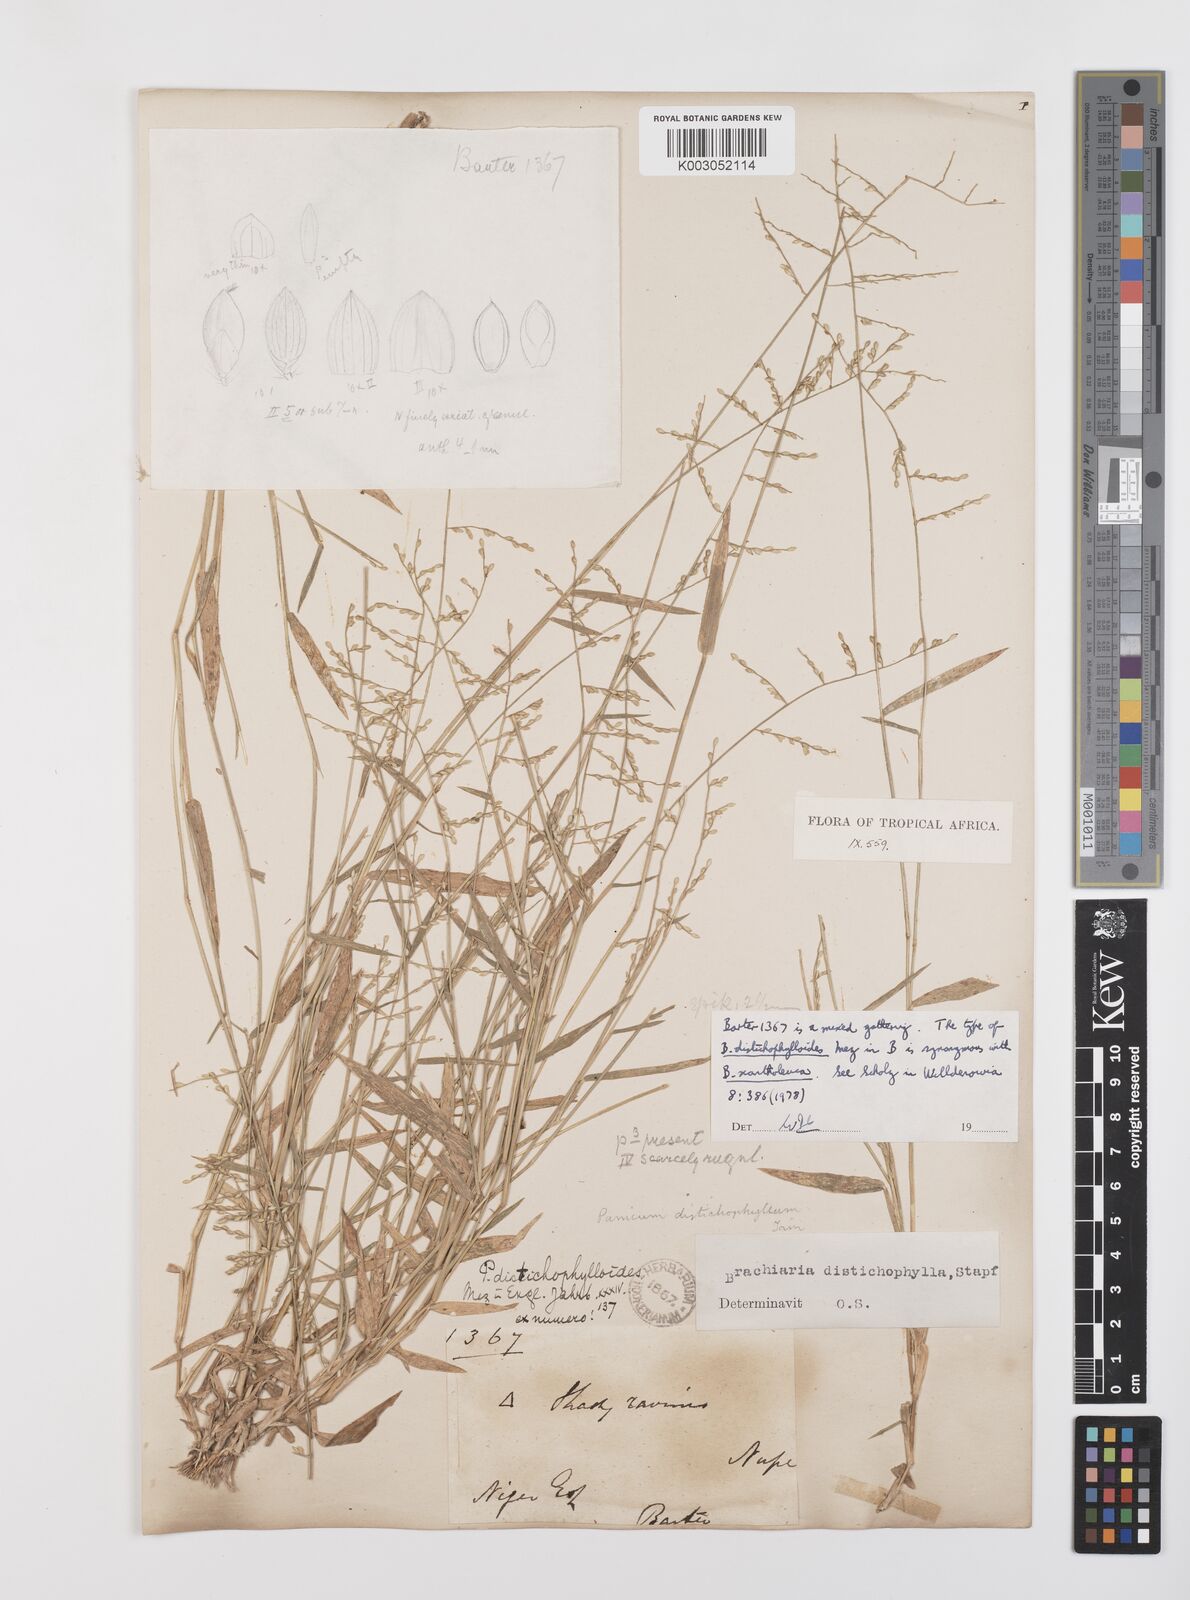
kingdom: Plantae
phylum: Tracheophyta
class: Liliopsida
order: Poales
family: Poaceae
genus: Urochloa
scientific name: Urochloa villosa
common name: Hairy signalgrass
